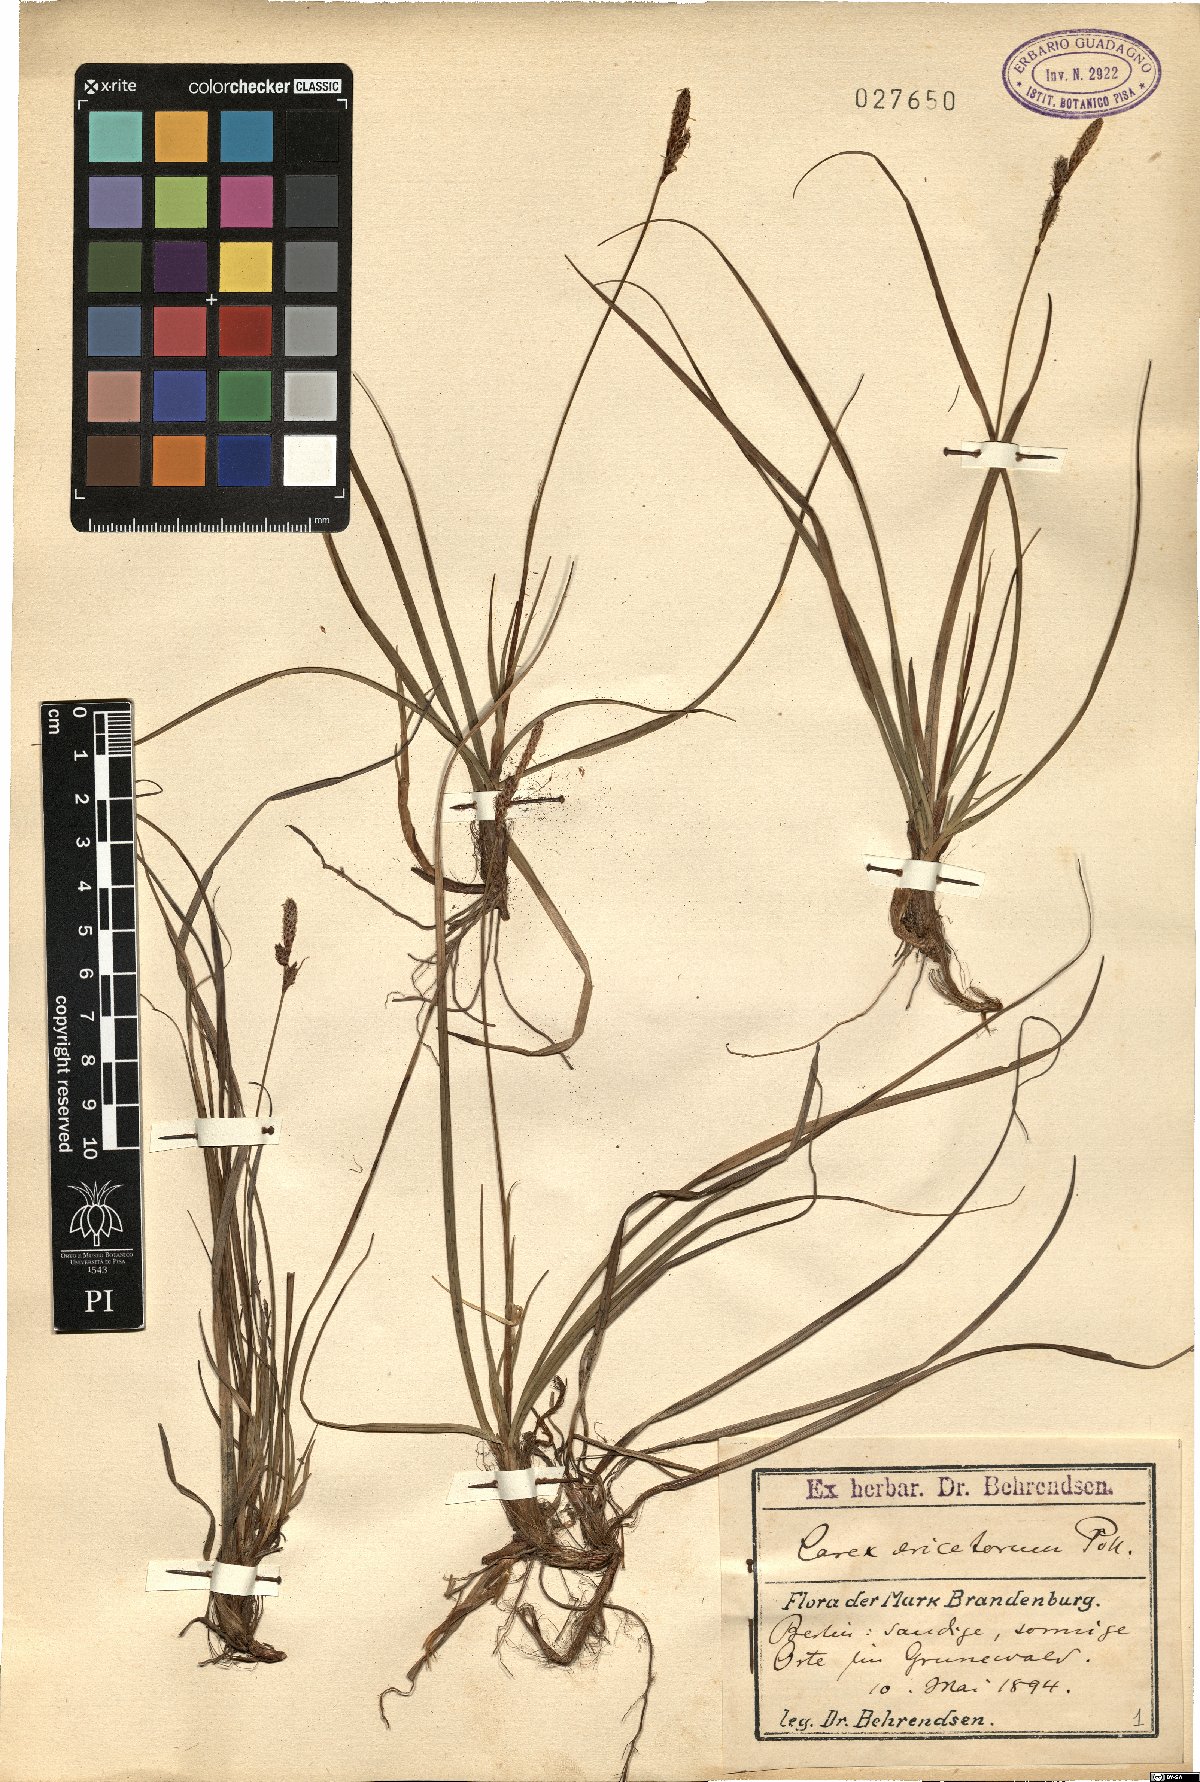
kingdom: Plantae
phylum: Tracheophyta
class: Liliopsida
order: Poales
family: Cyperaceae
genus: Carex
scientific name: Carex ericetorum
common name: Rare spring-sedge
